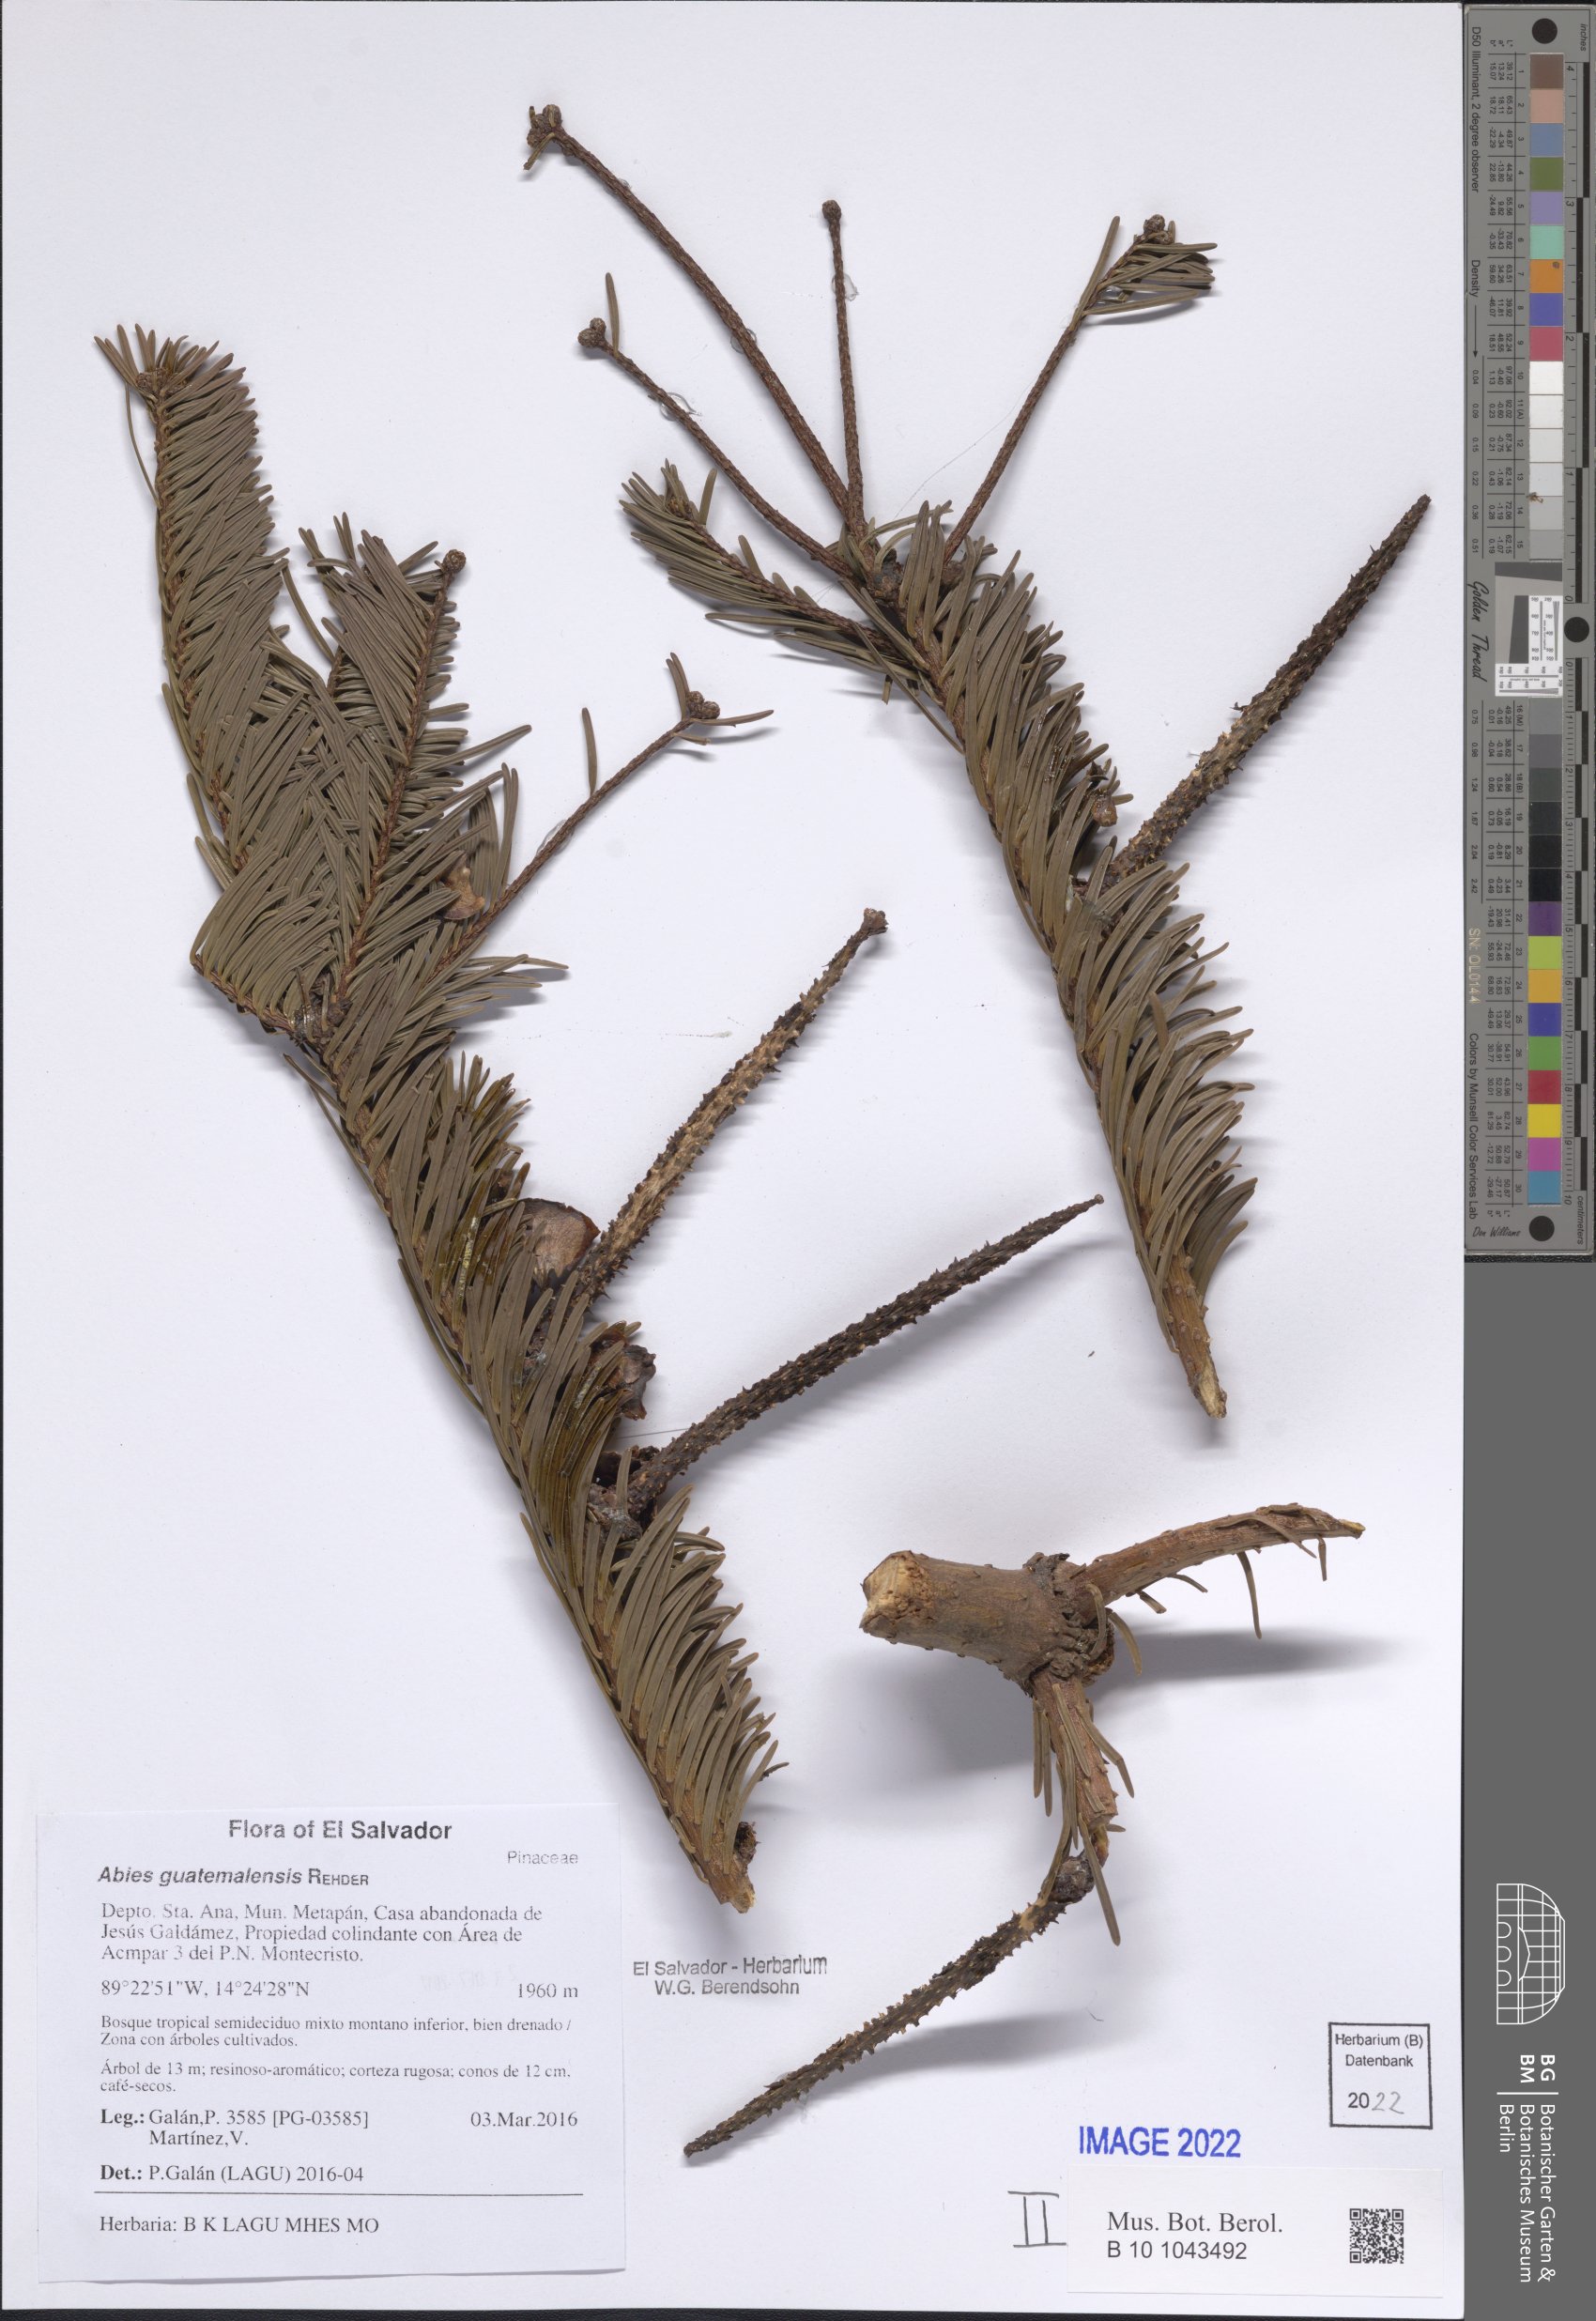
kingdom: Plantae
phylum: Tracheophyta
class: Pinopsida
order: Pinales
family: Pinaceae
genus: Abies
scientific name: Abies guatemalensis
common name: Guatemalan fir
